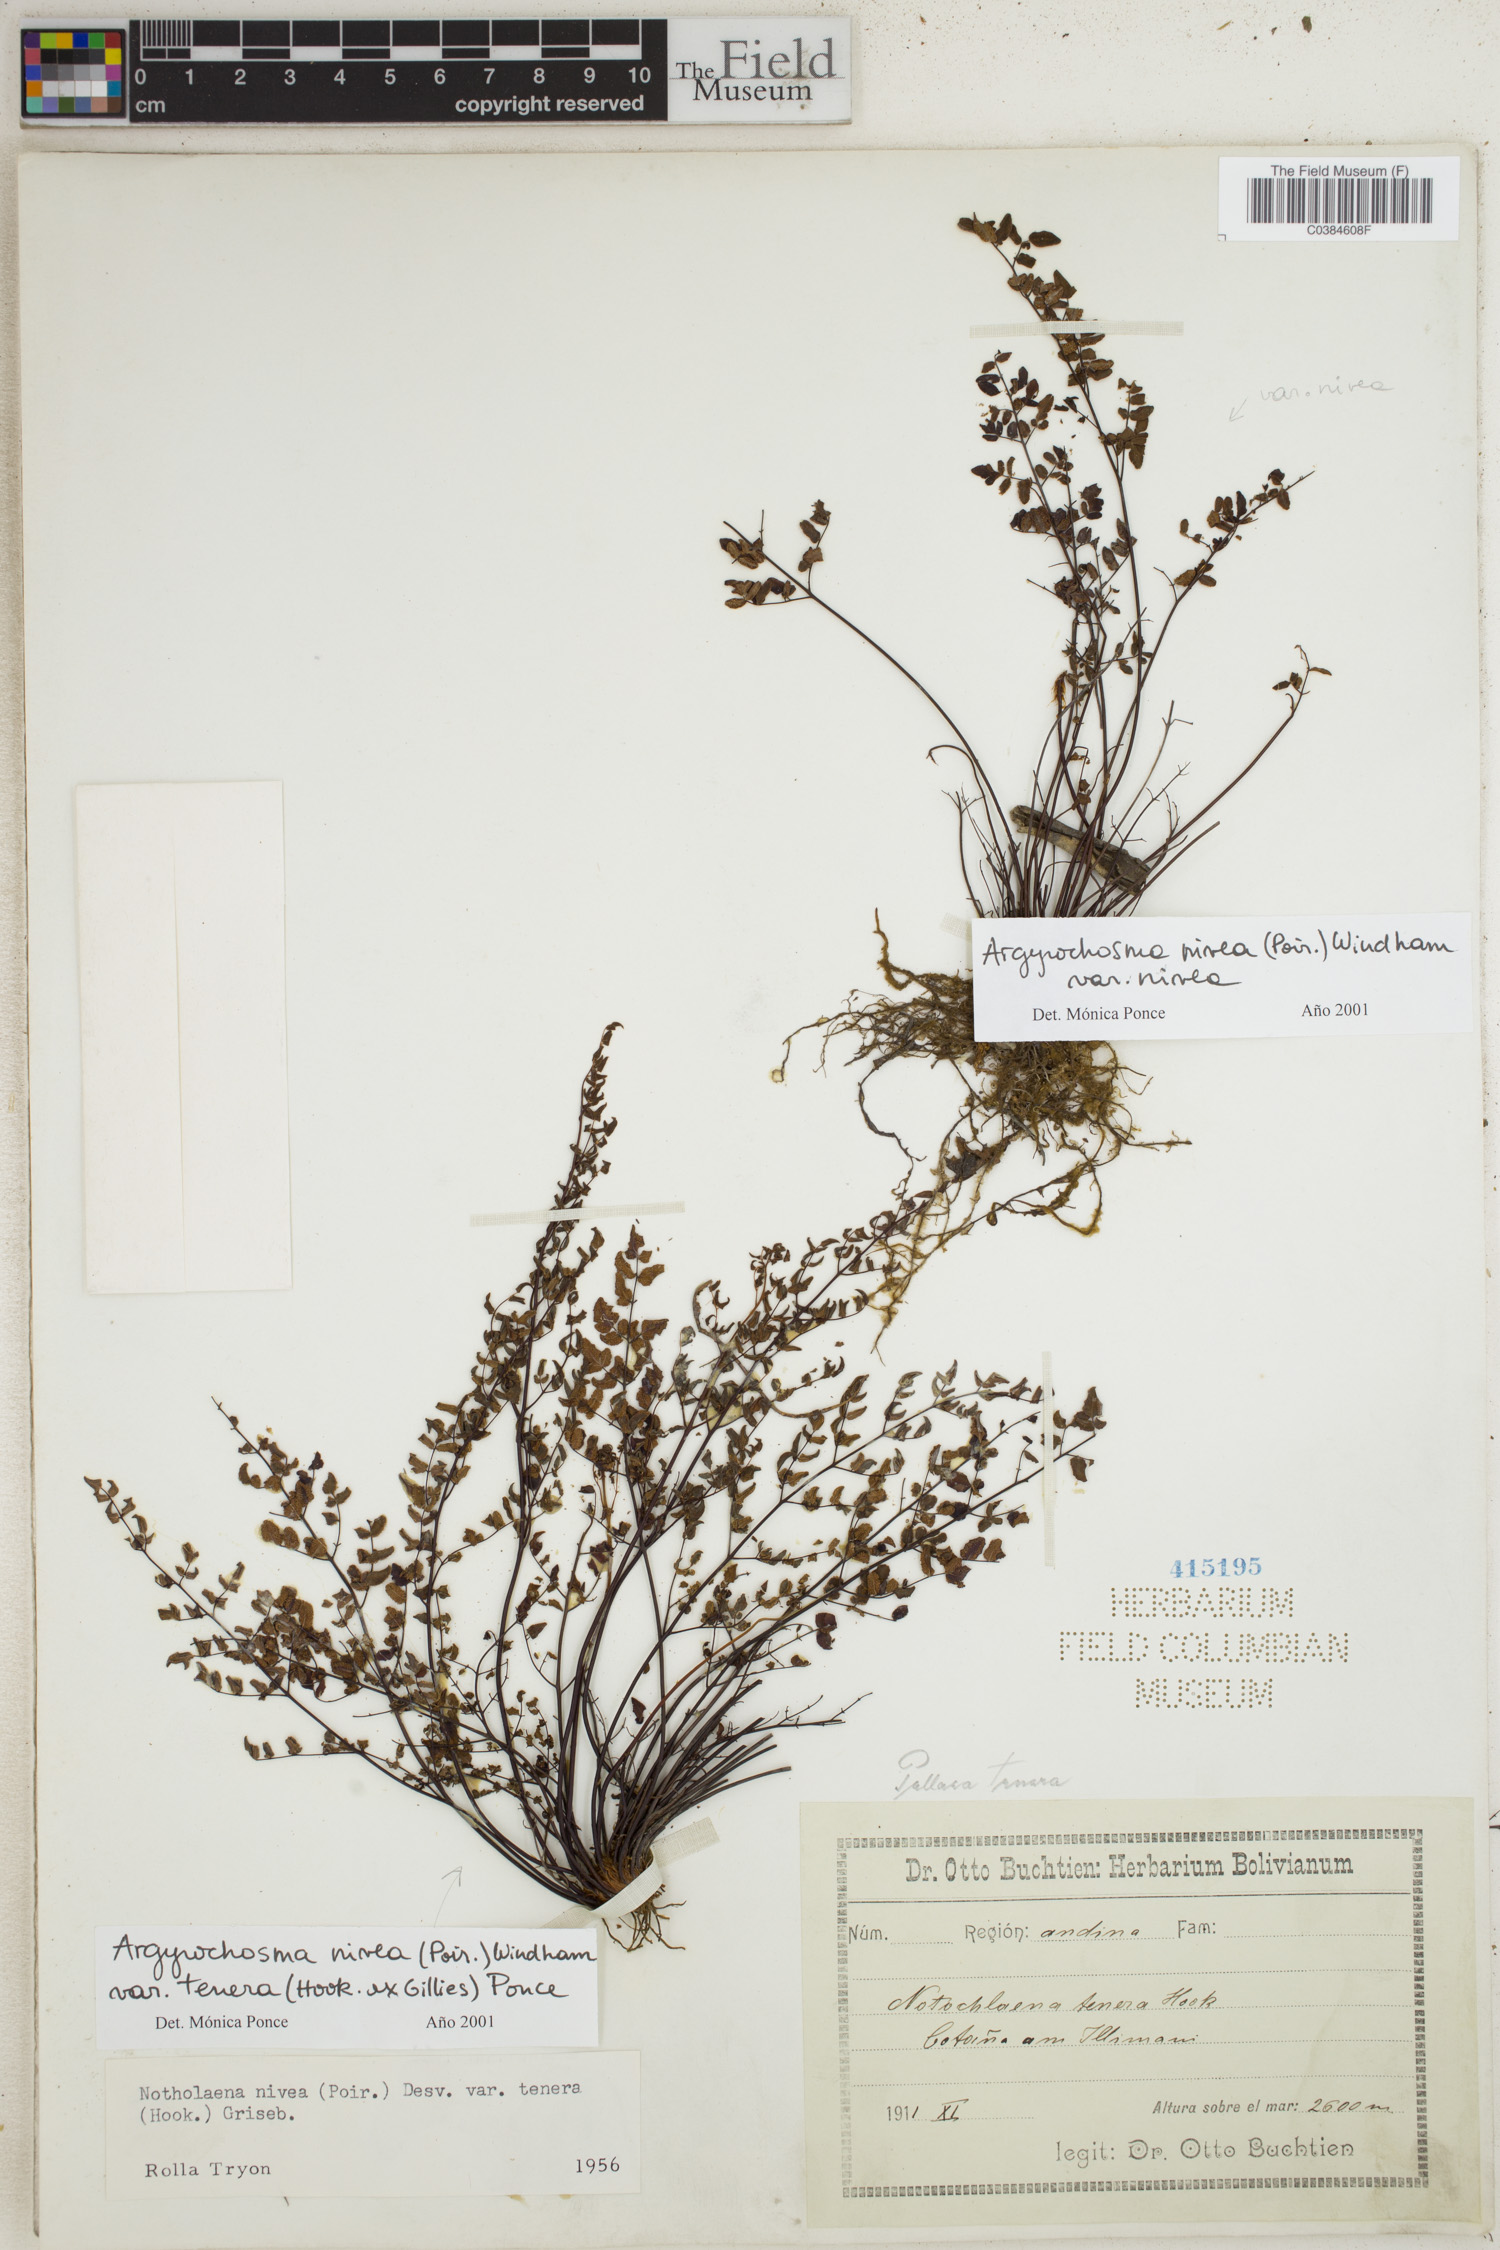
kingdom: Plantae
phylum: Tracheophyta
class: Polypodiopsida
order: Polypodiales
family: Pteridaceae
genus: Argyrochosma
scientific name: Argyrochosma nivea
